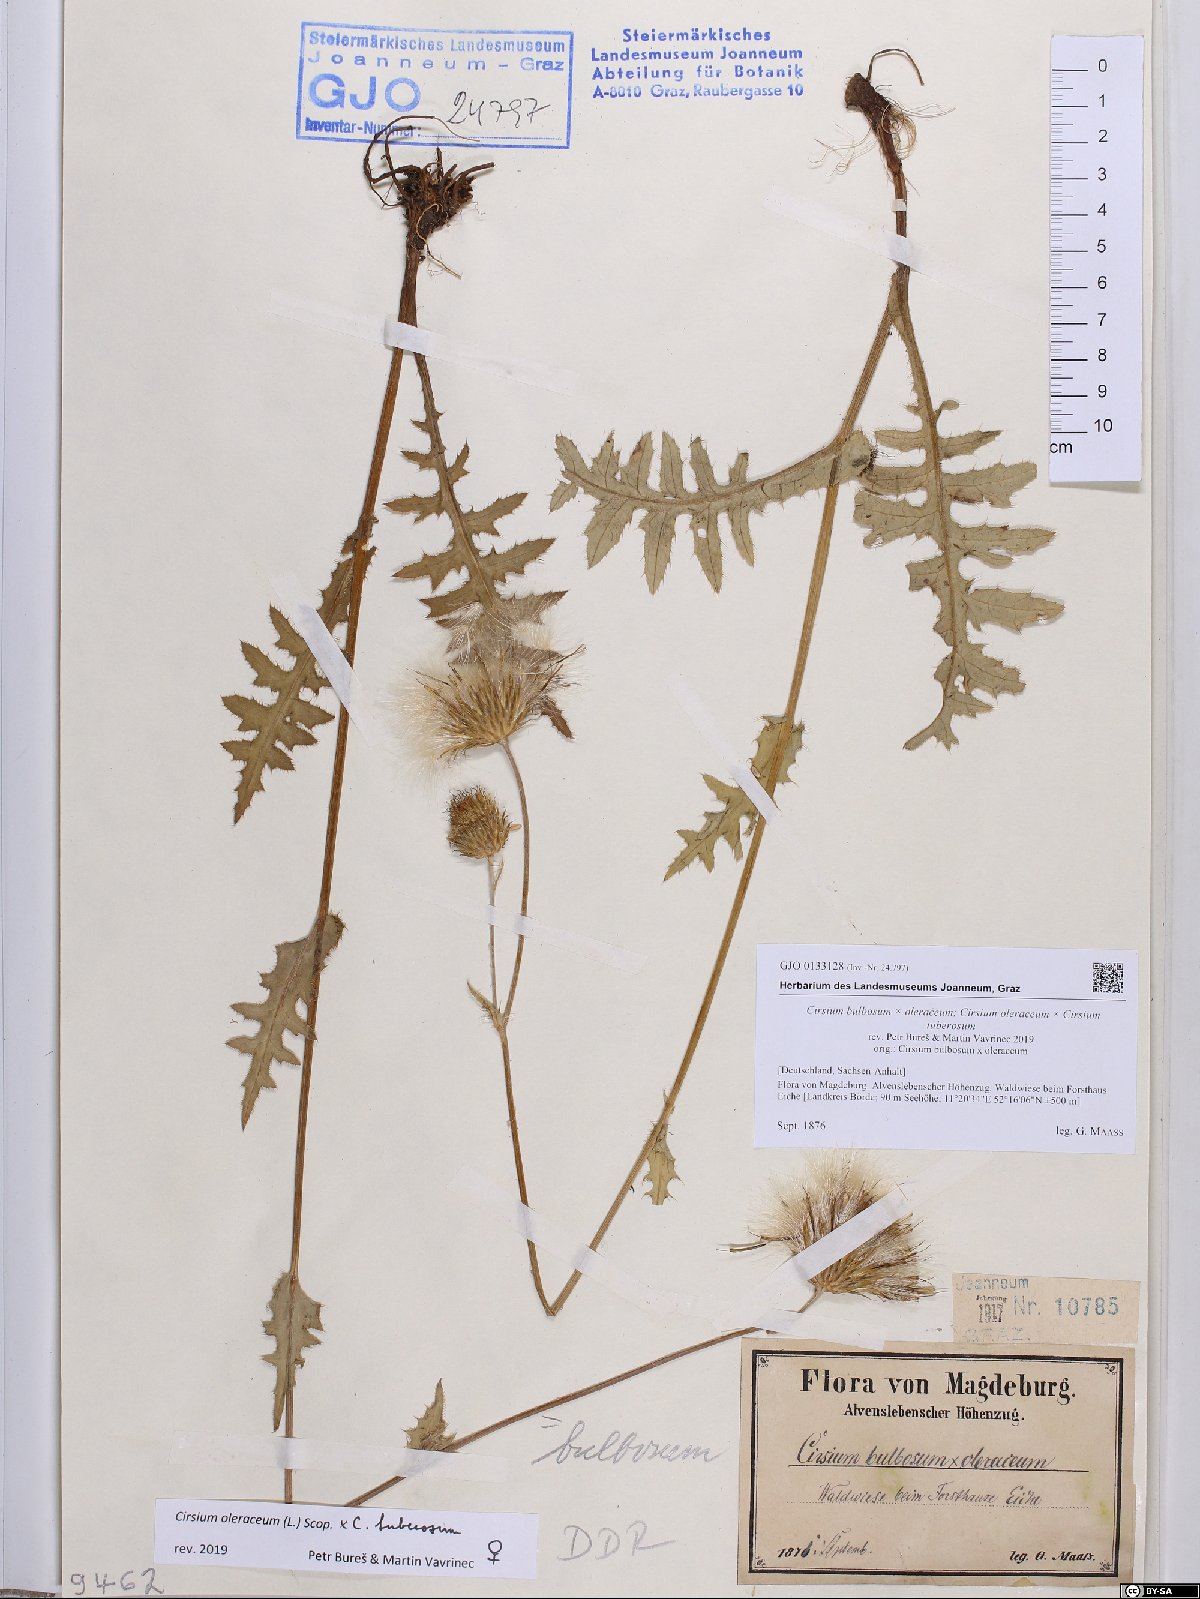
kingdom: Plantae
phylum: Tracheophyta
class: Magnoliopsida
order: Asterales
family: Asteraceae
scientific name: Asteraceae
